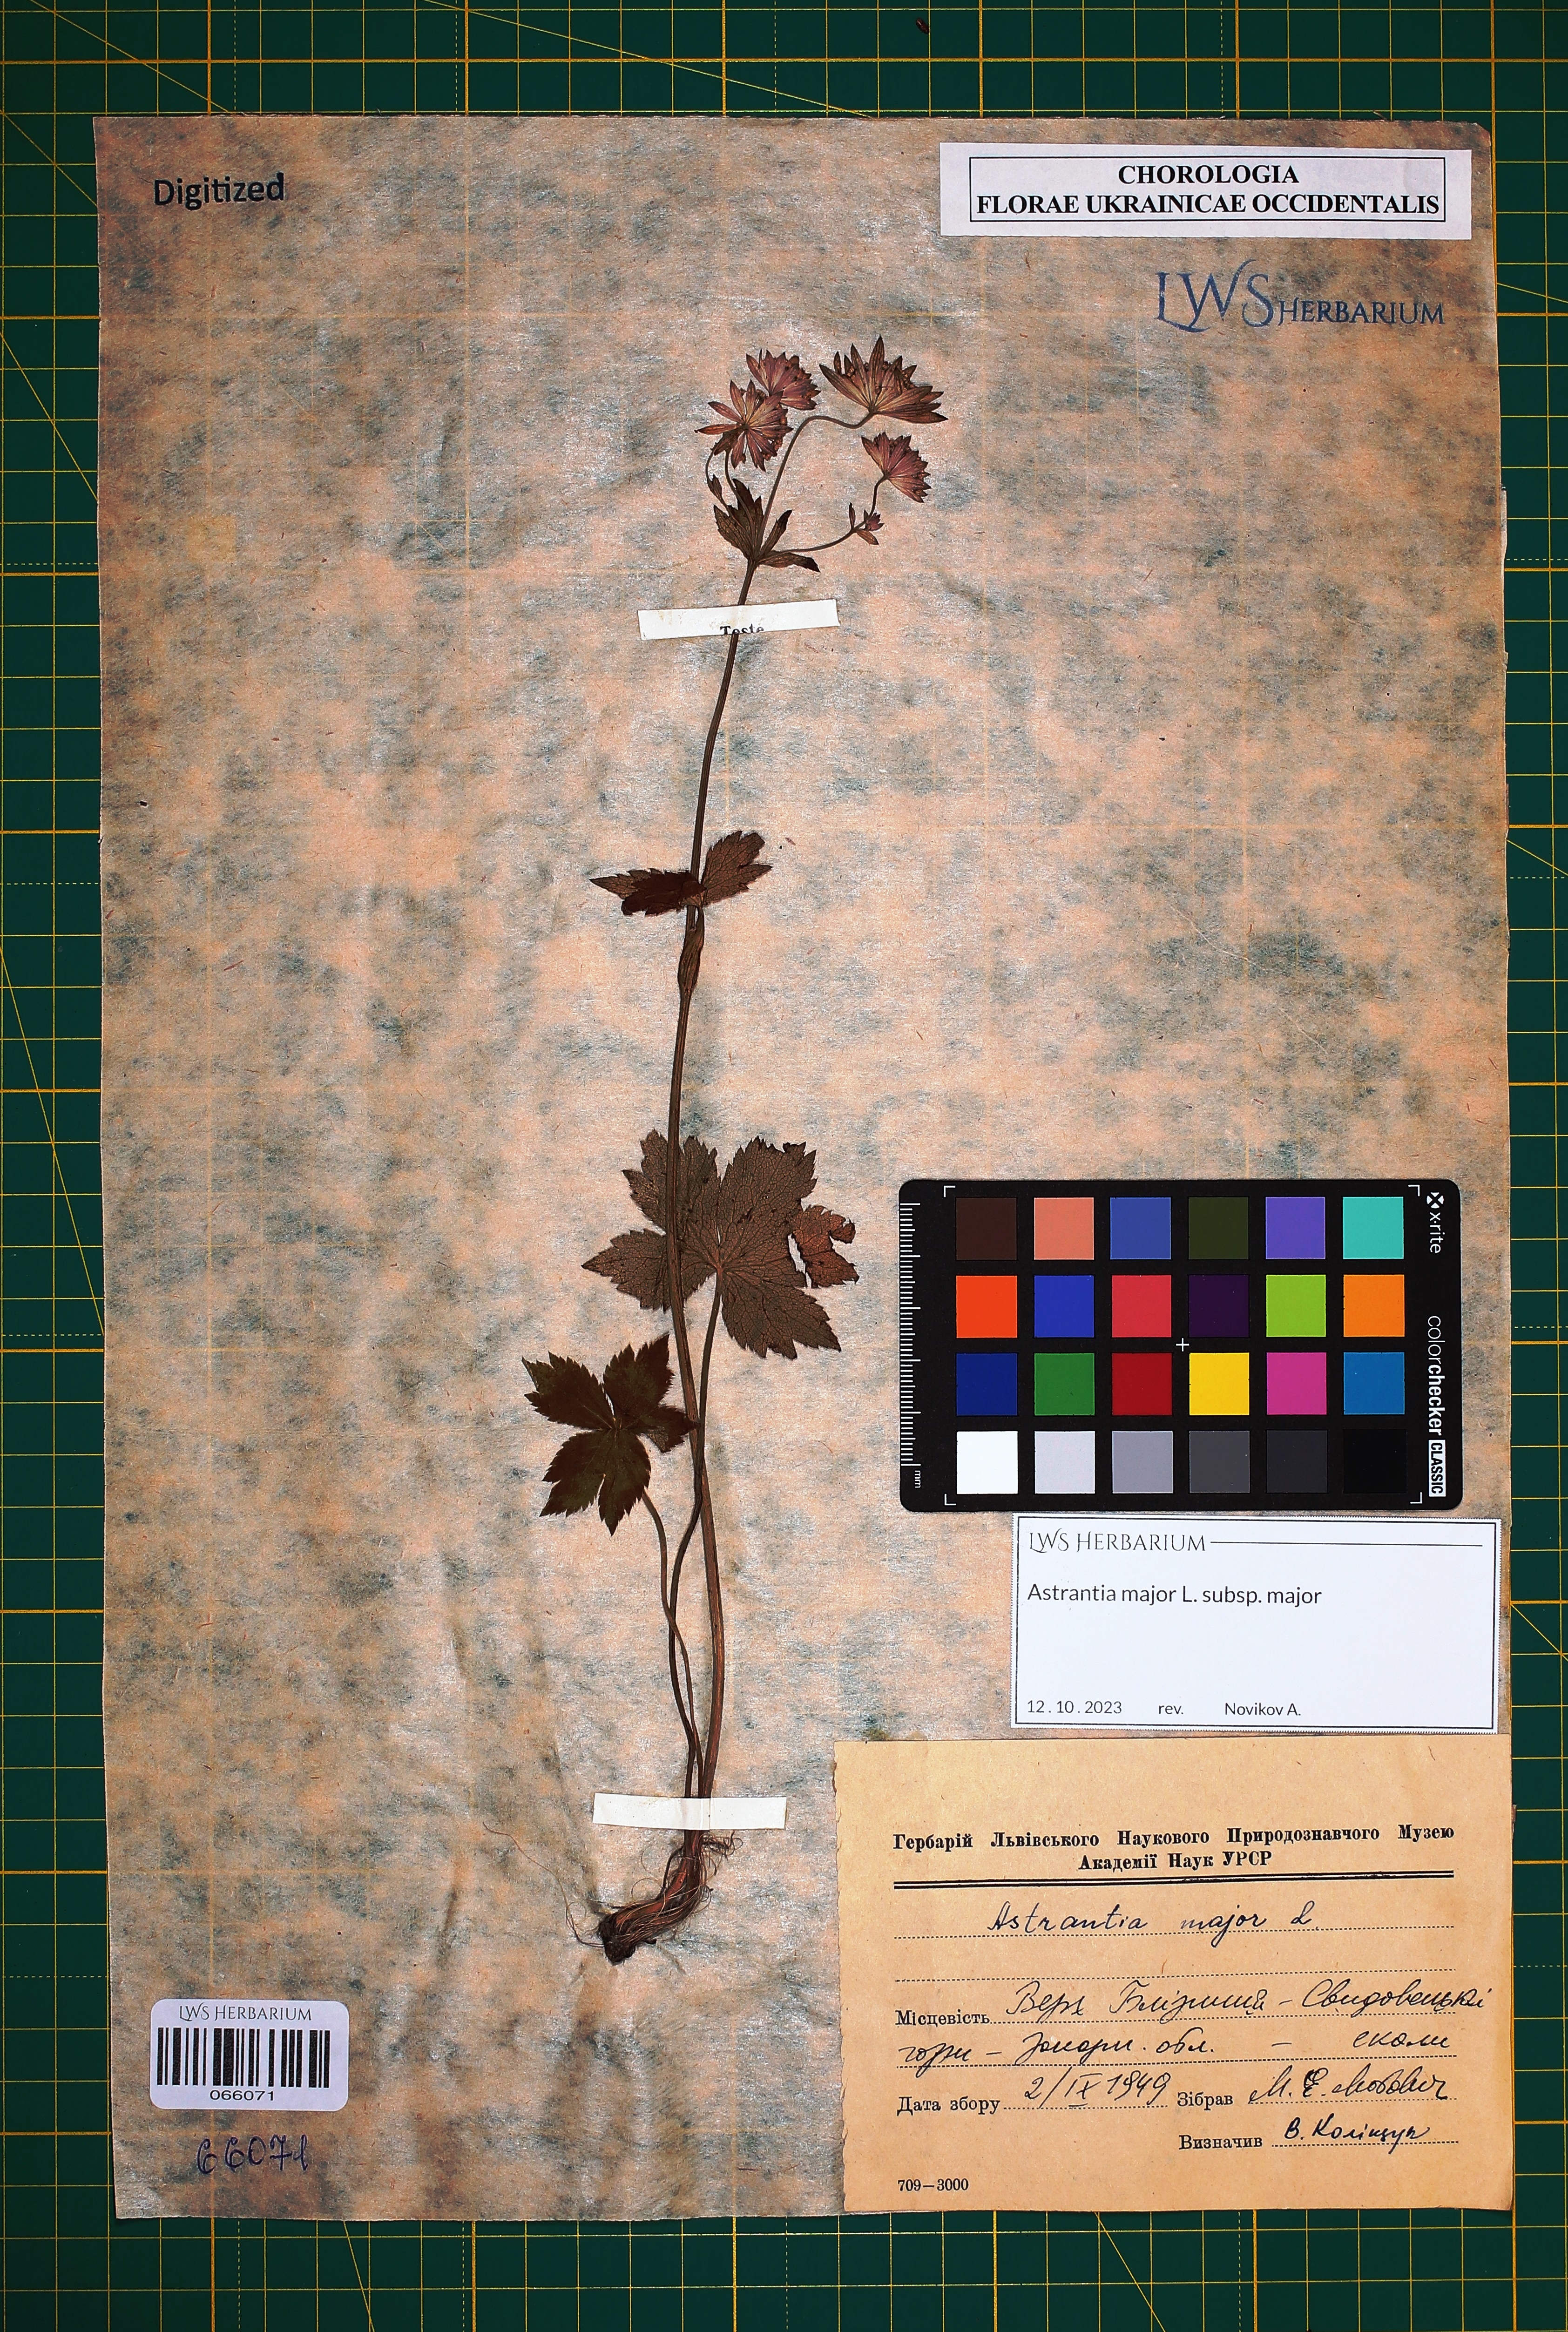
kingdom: Plantae
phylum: Tracheophyta
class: Magnoliopsida
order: Apiales
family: Apiaceae
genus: Astrantia
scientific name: Astrantia major
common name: Greater masterwort
